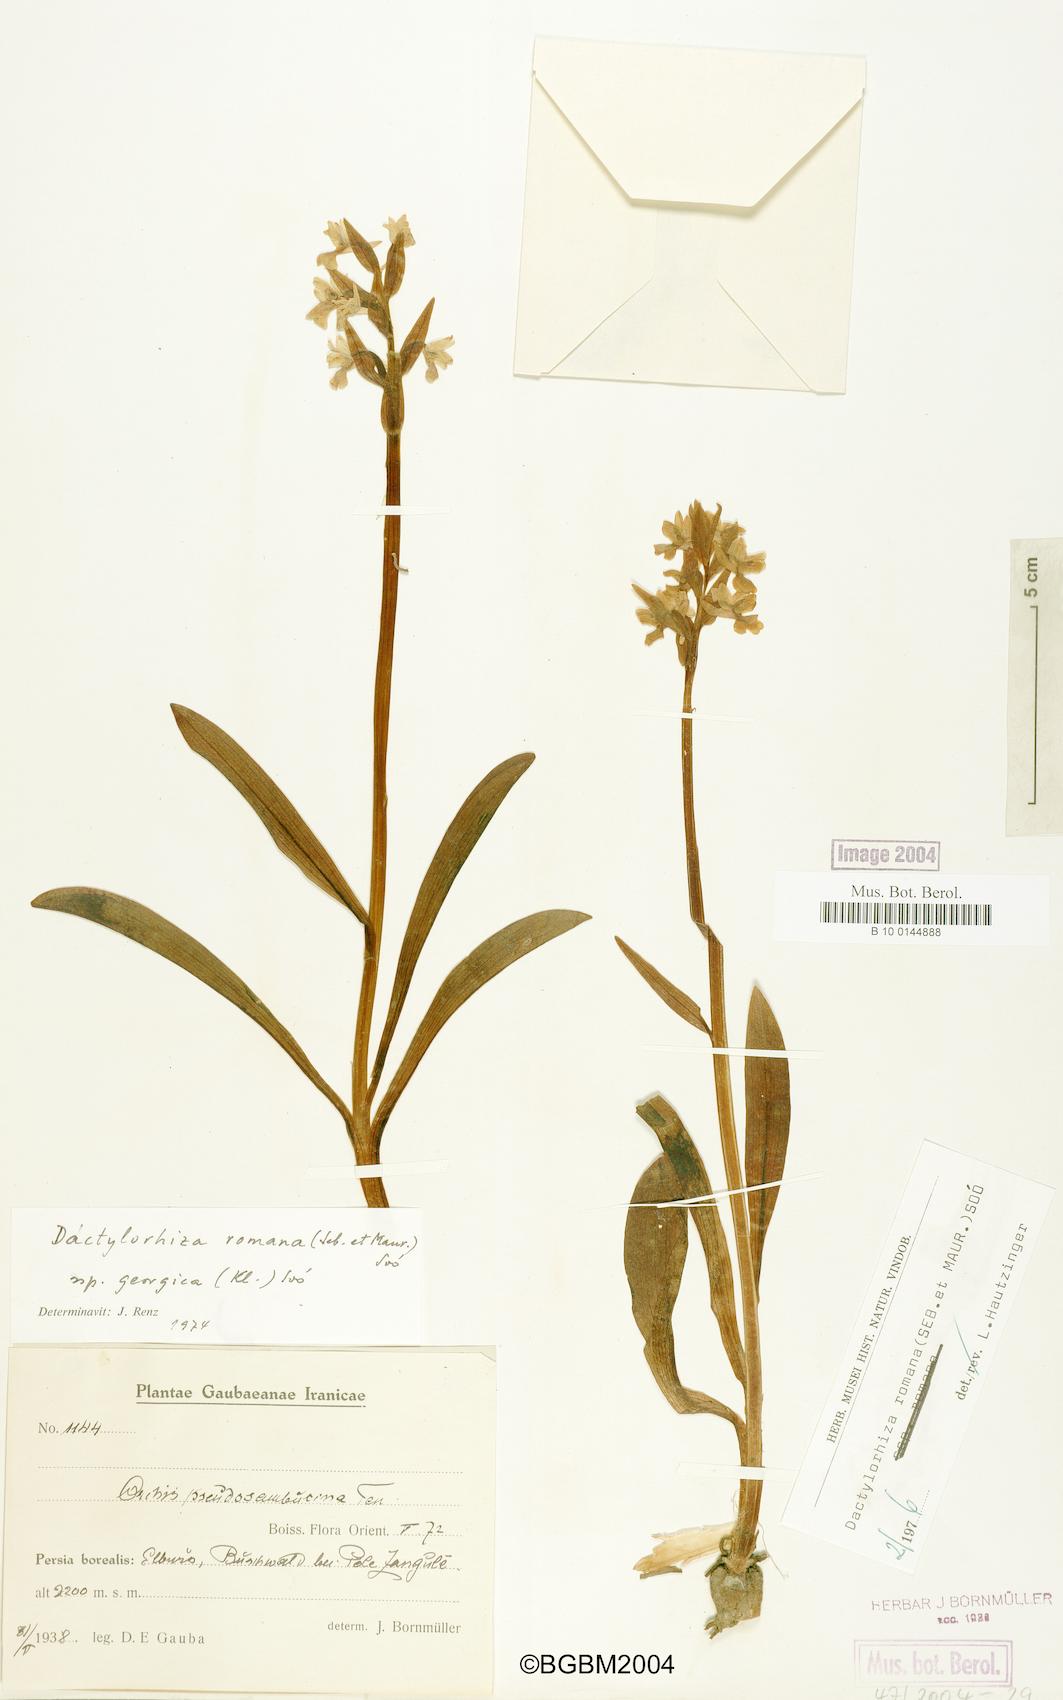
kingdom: Plantae
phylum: Tracheophyta
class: Liliopsida
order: Asparagales
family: Orchidaceae
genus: Dactylorhiza
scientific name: Dactylorhiza romana
